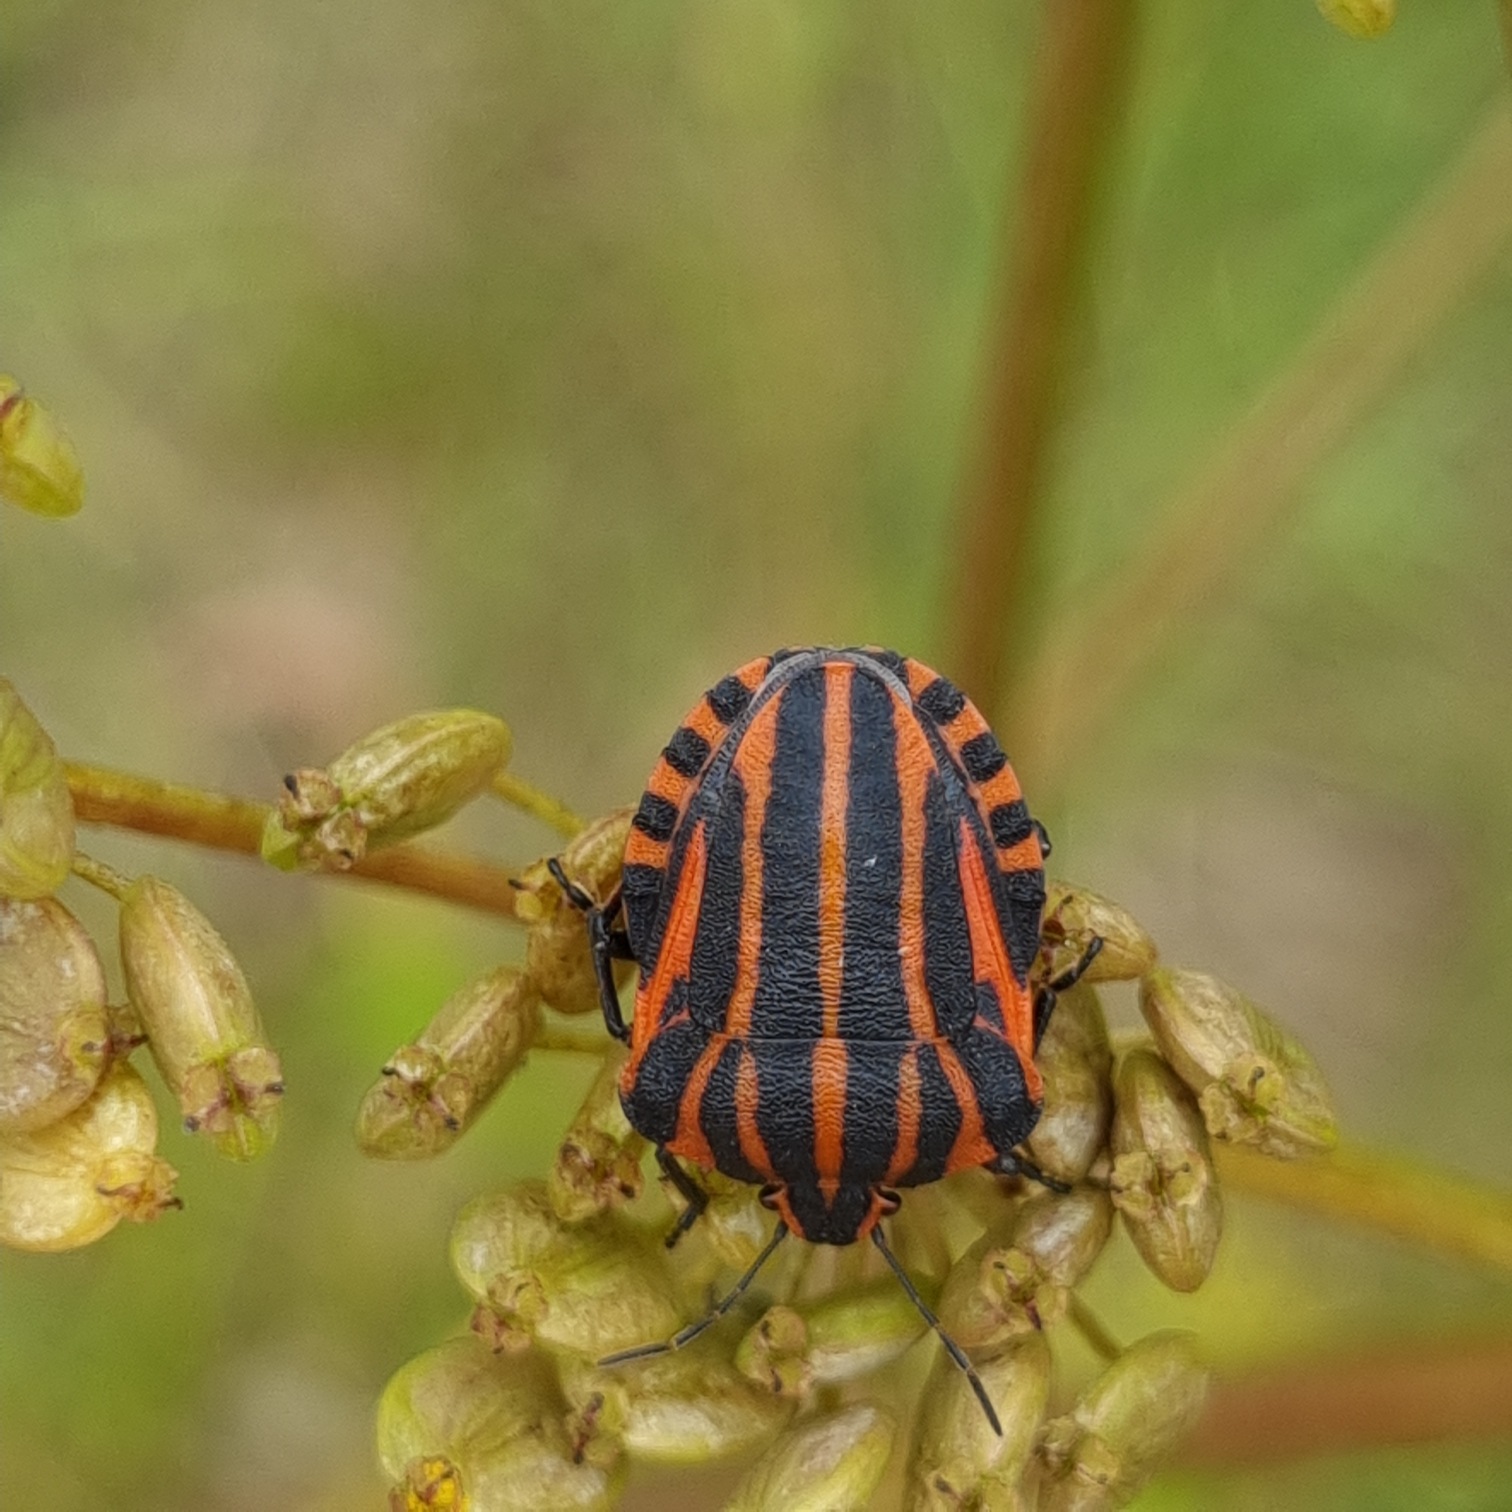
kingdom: Animalia
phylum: Arthropoda
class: Insecta
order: Hemiptera
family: Pentatomidae
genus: Graphosoma
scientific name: Graphosoma italicum
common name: Stribetæge
